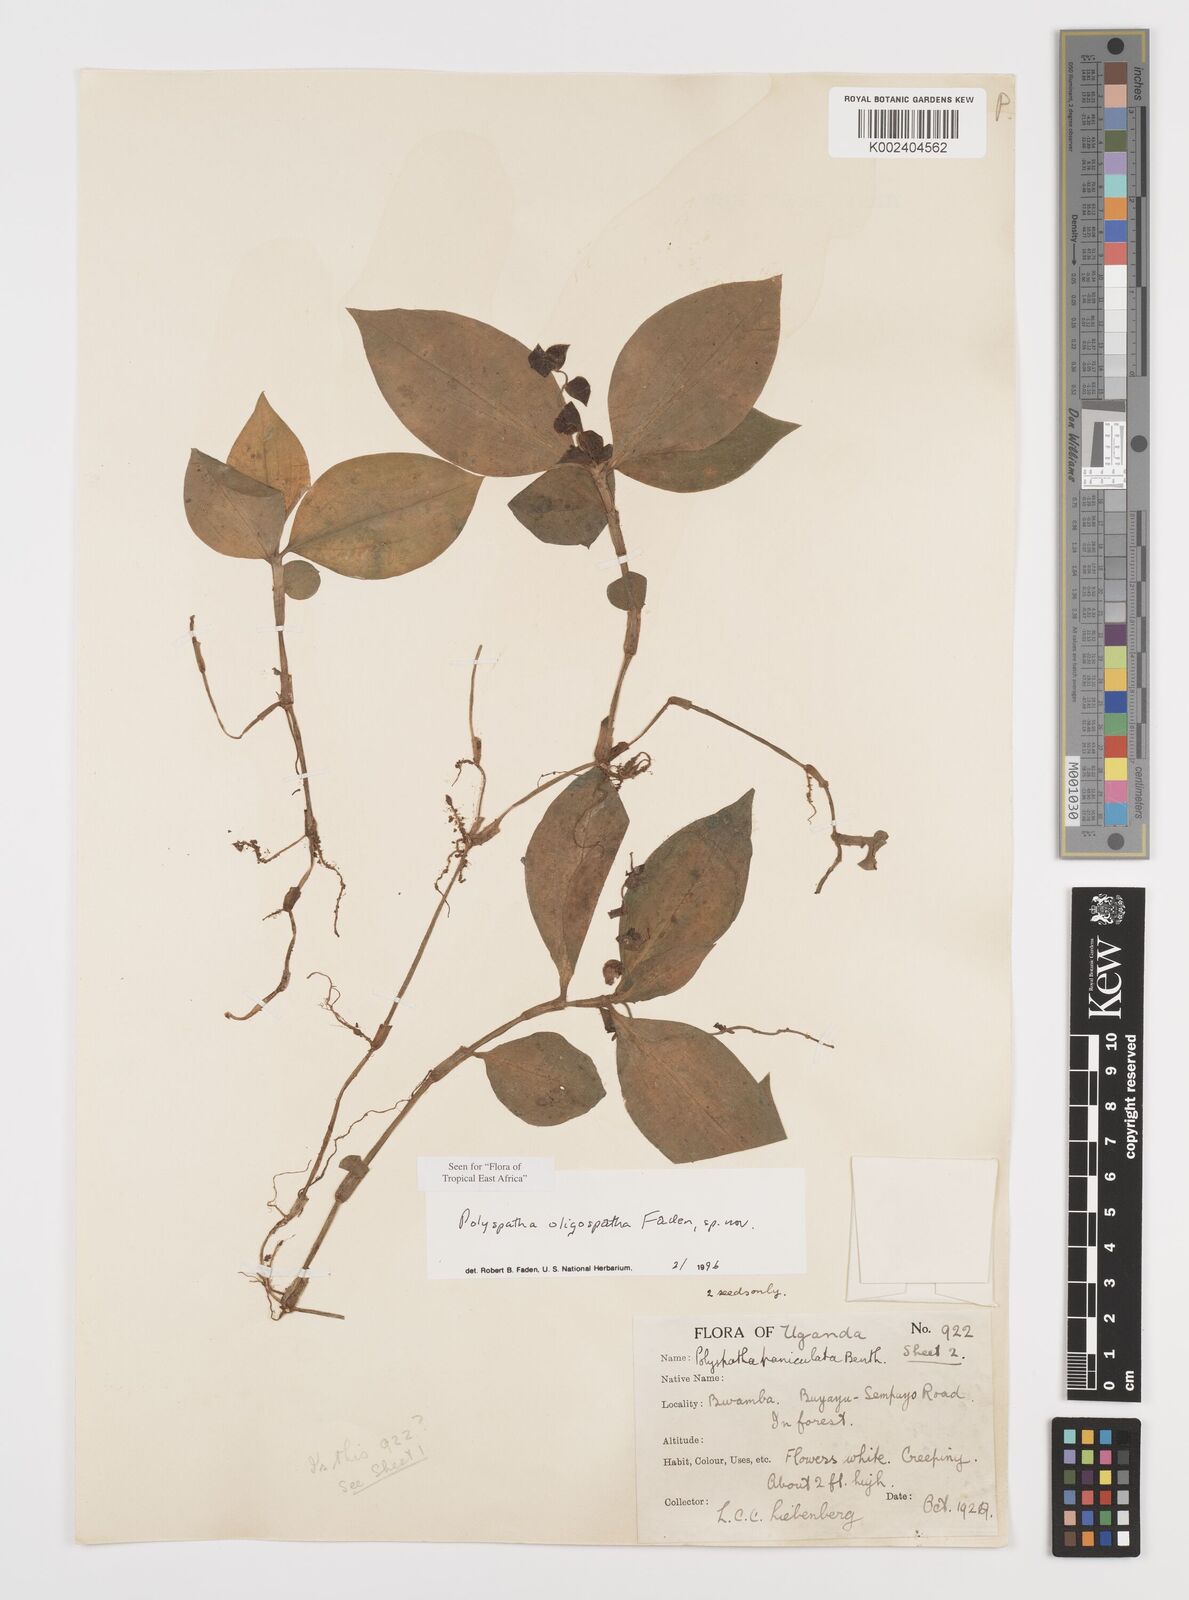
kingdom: Plantae
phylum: Tracheophyta
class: Liliopsida
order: Commelinales
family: Commelinaceae
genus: Polyspatha
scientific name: Polyspatha oligospatha
